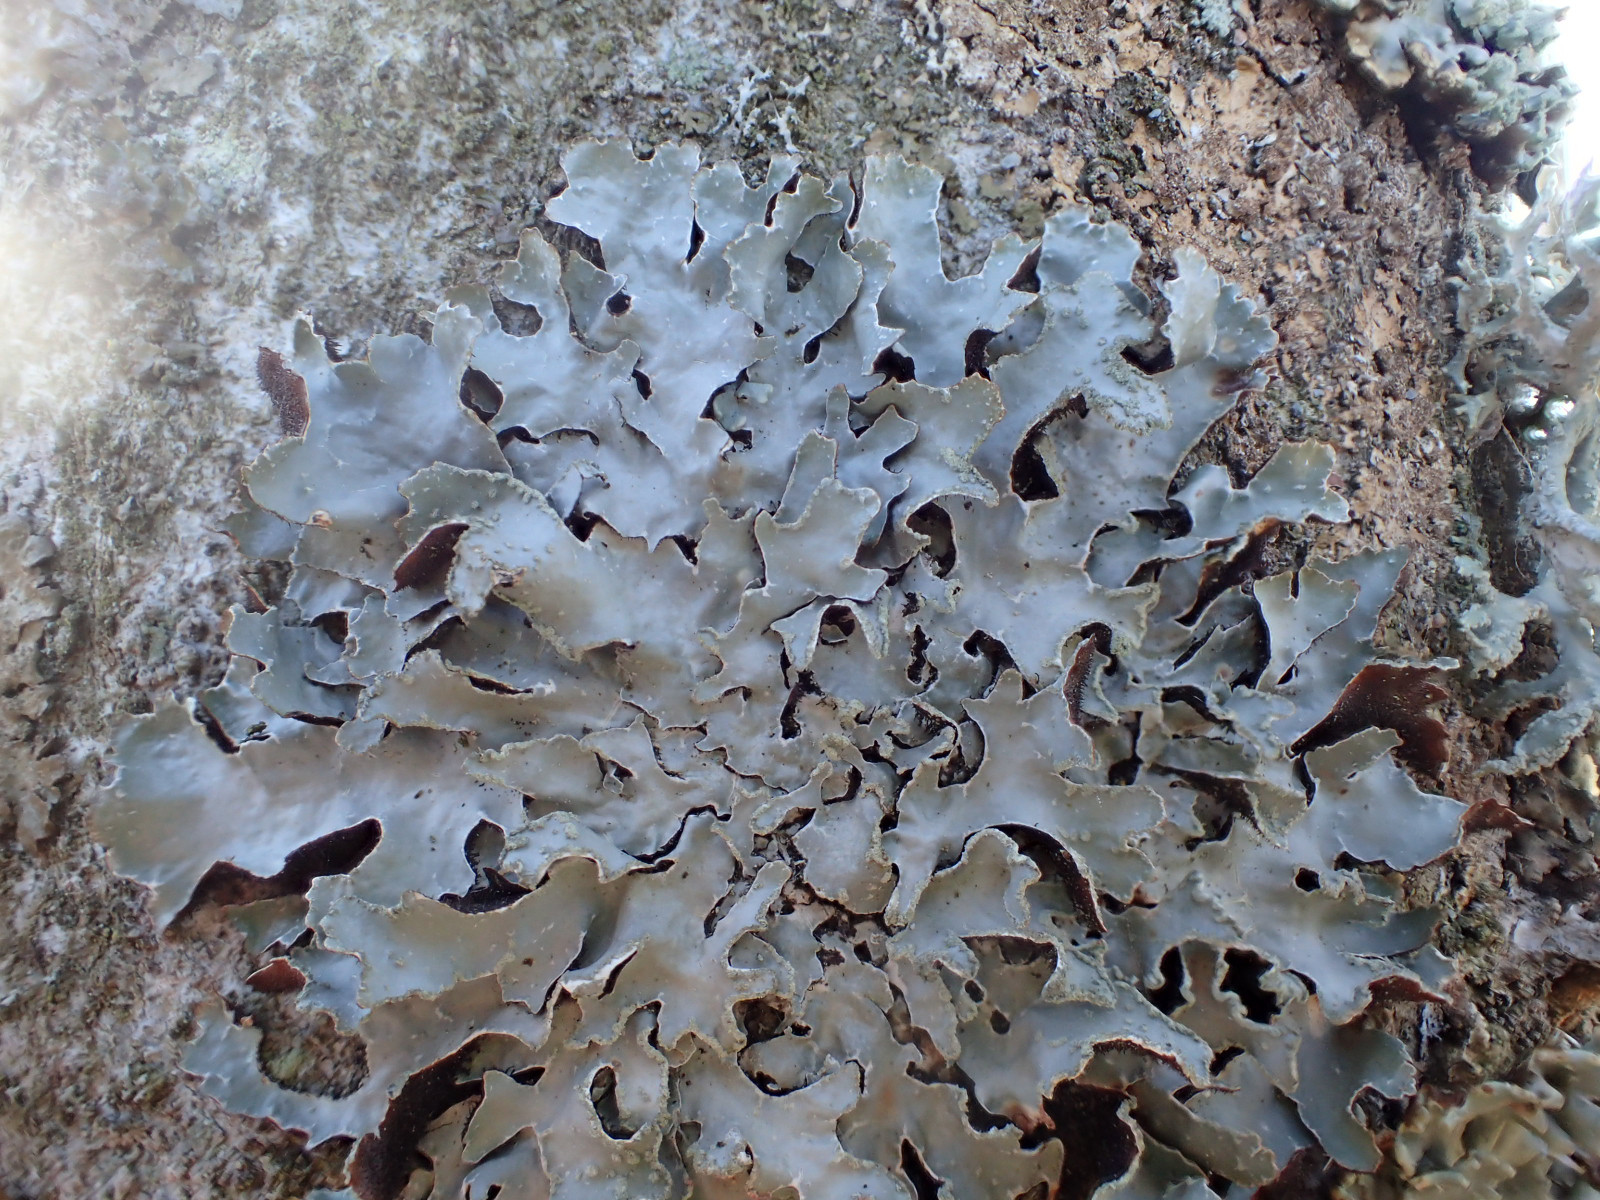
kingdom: Fungi
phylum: Ascomycota
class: Lecanoromycetes
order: Lecanorales
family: Parmeliaceae
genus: Parmelia
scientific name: Parmelia sulcata
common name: rynket skållav
